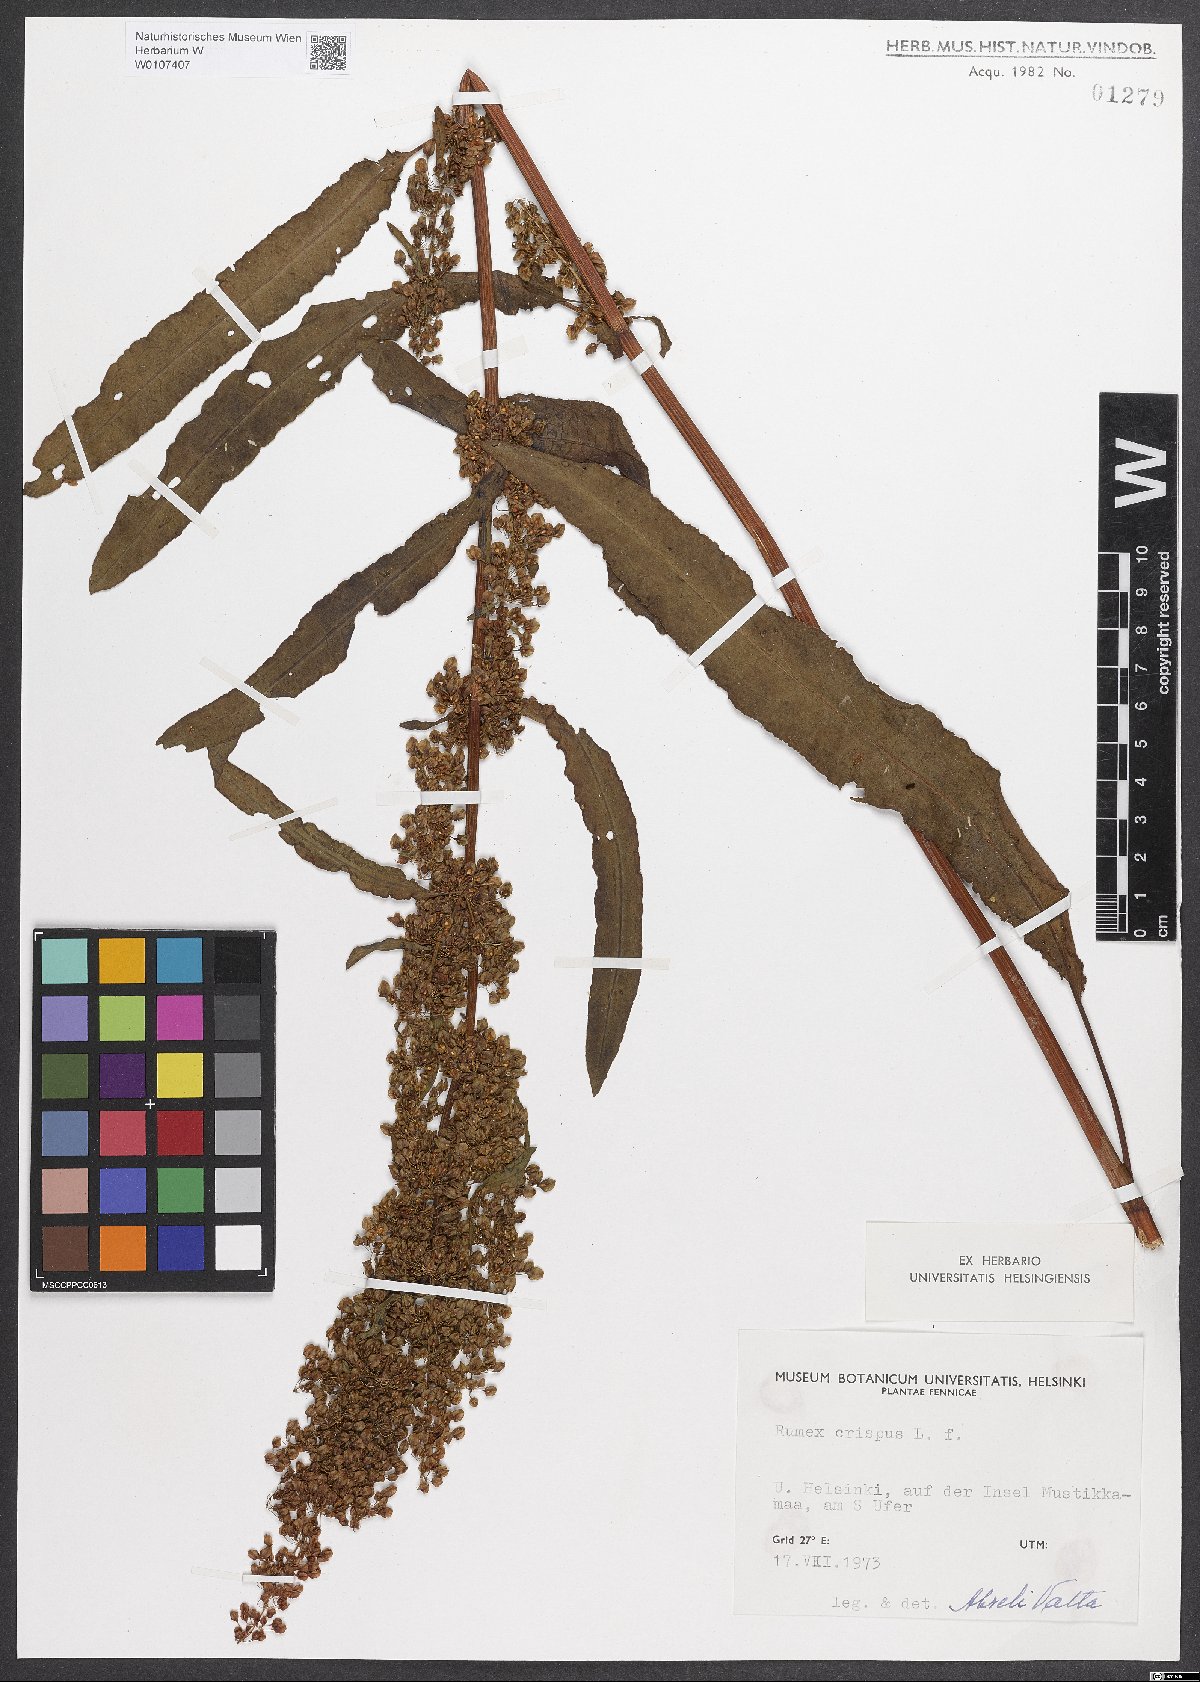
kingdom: Plantae
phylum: Tracheophyta
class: Magnoliopsida
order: Caryophyllales
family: Polygonaceae
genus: Rumex
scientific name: Rumex crispus
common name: Curled dock
